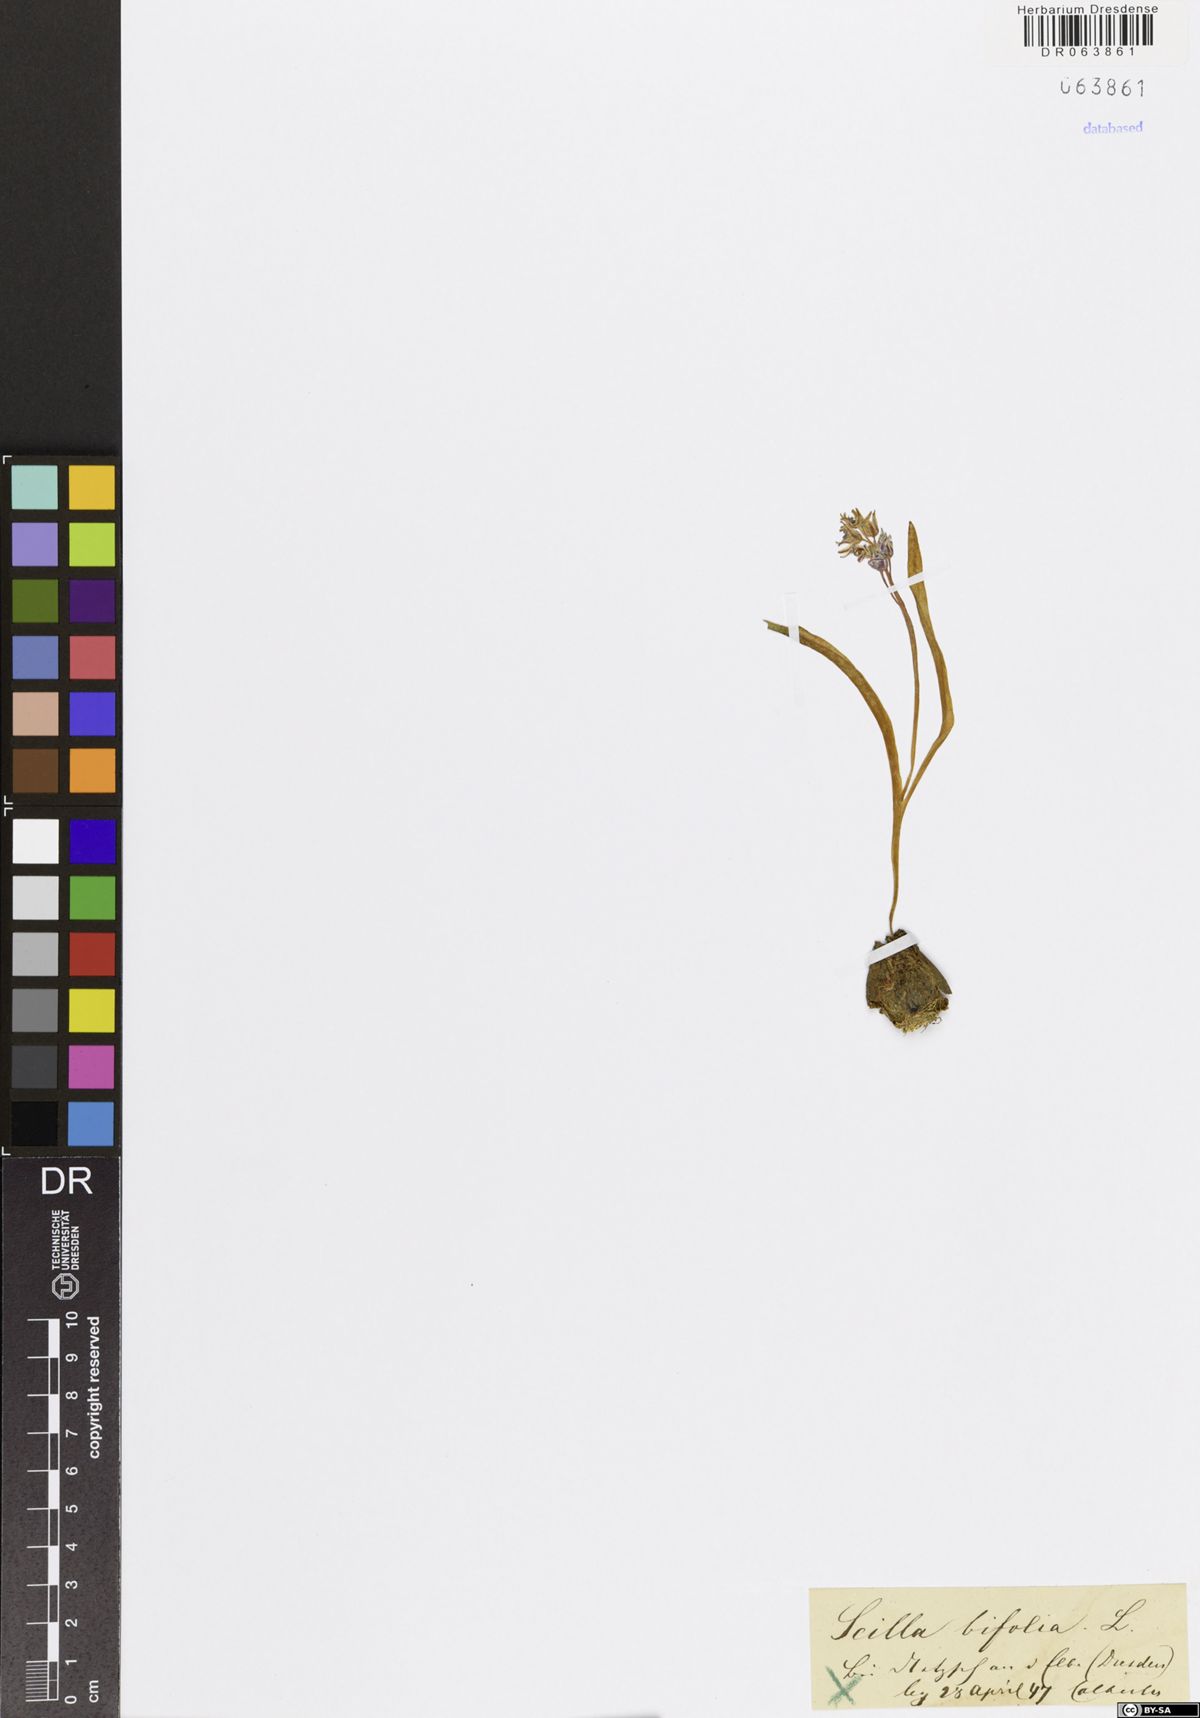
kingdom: Plantae
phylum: Tracheophyta
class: Liliopsida
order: Asparagales
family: Asparagaceae
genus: Scilla
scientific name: Scilla bifolia
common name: Alpine squill
